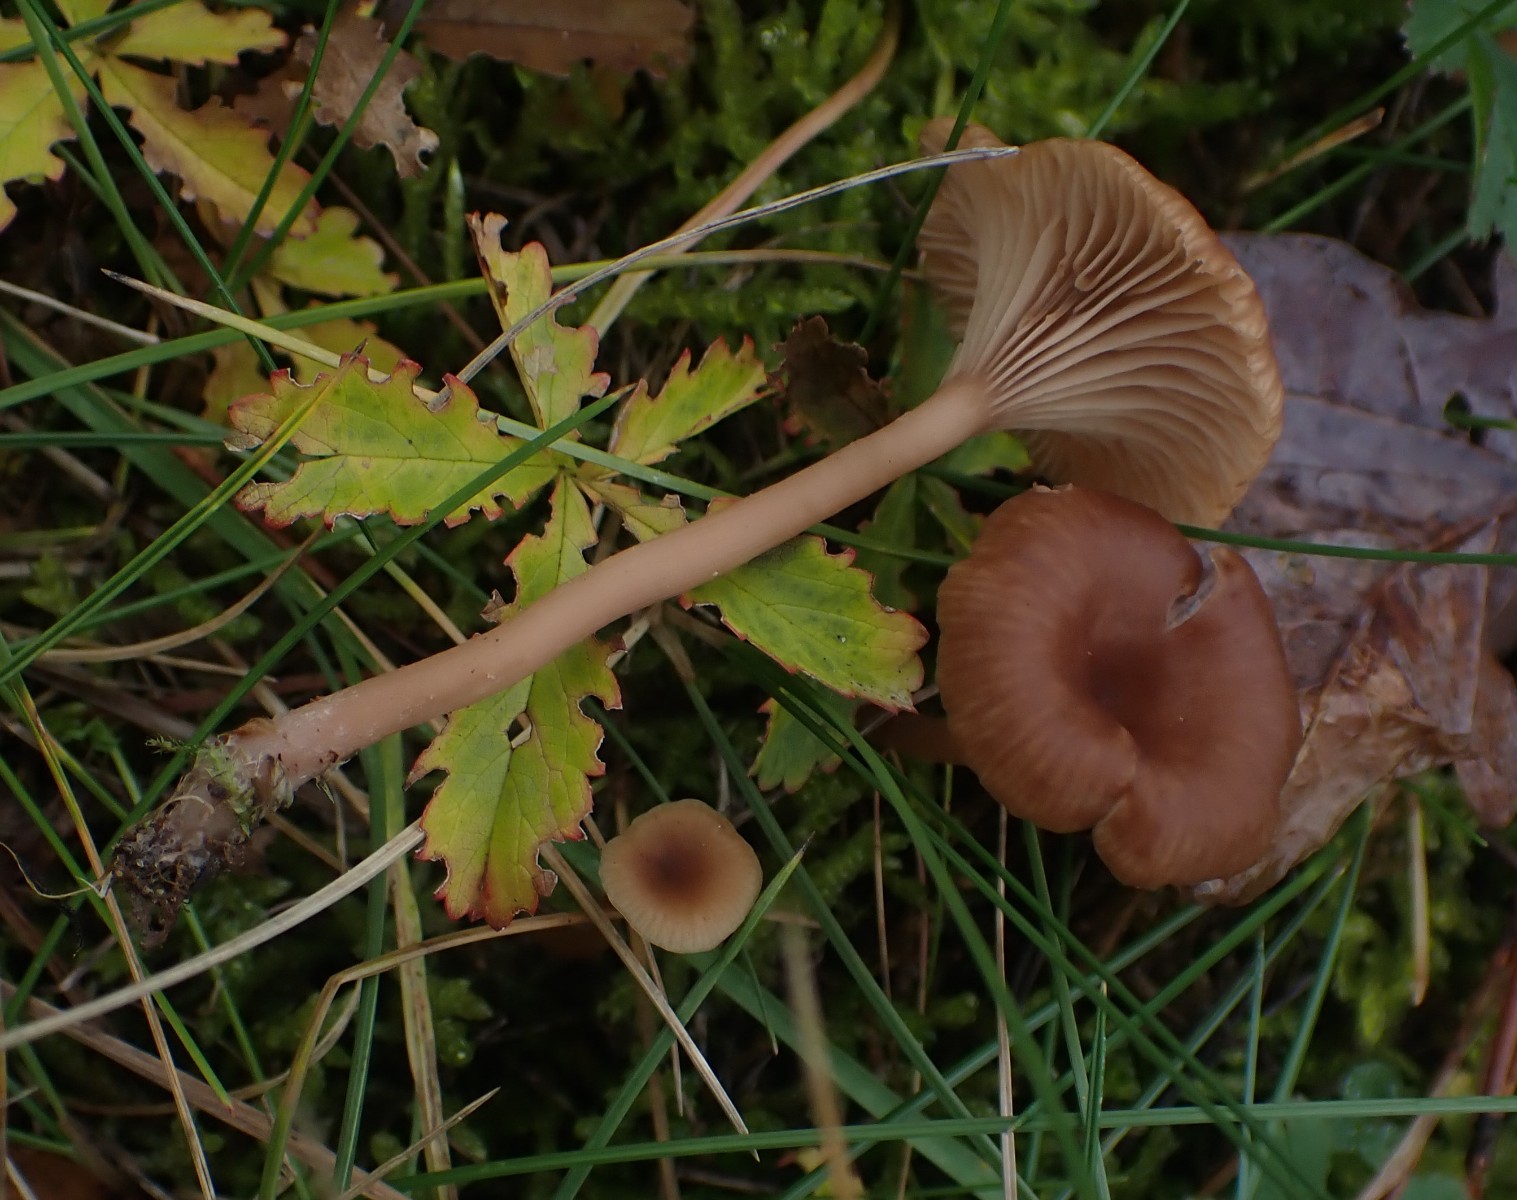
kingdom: Fungi
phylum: Basidiomycota
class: Agaricomycetes
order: Agaricales
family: Tricholomataceae
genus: Omphalina
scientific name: Omphalina pyxidata
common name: rødbrun navlehat
